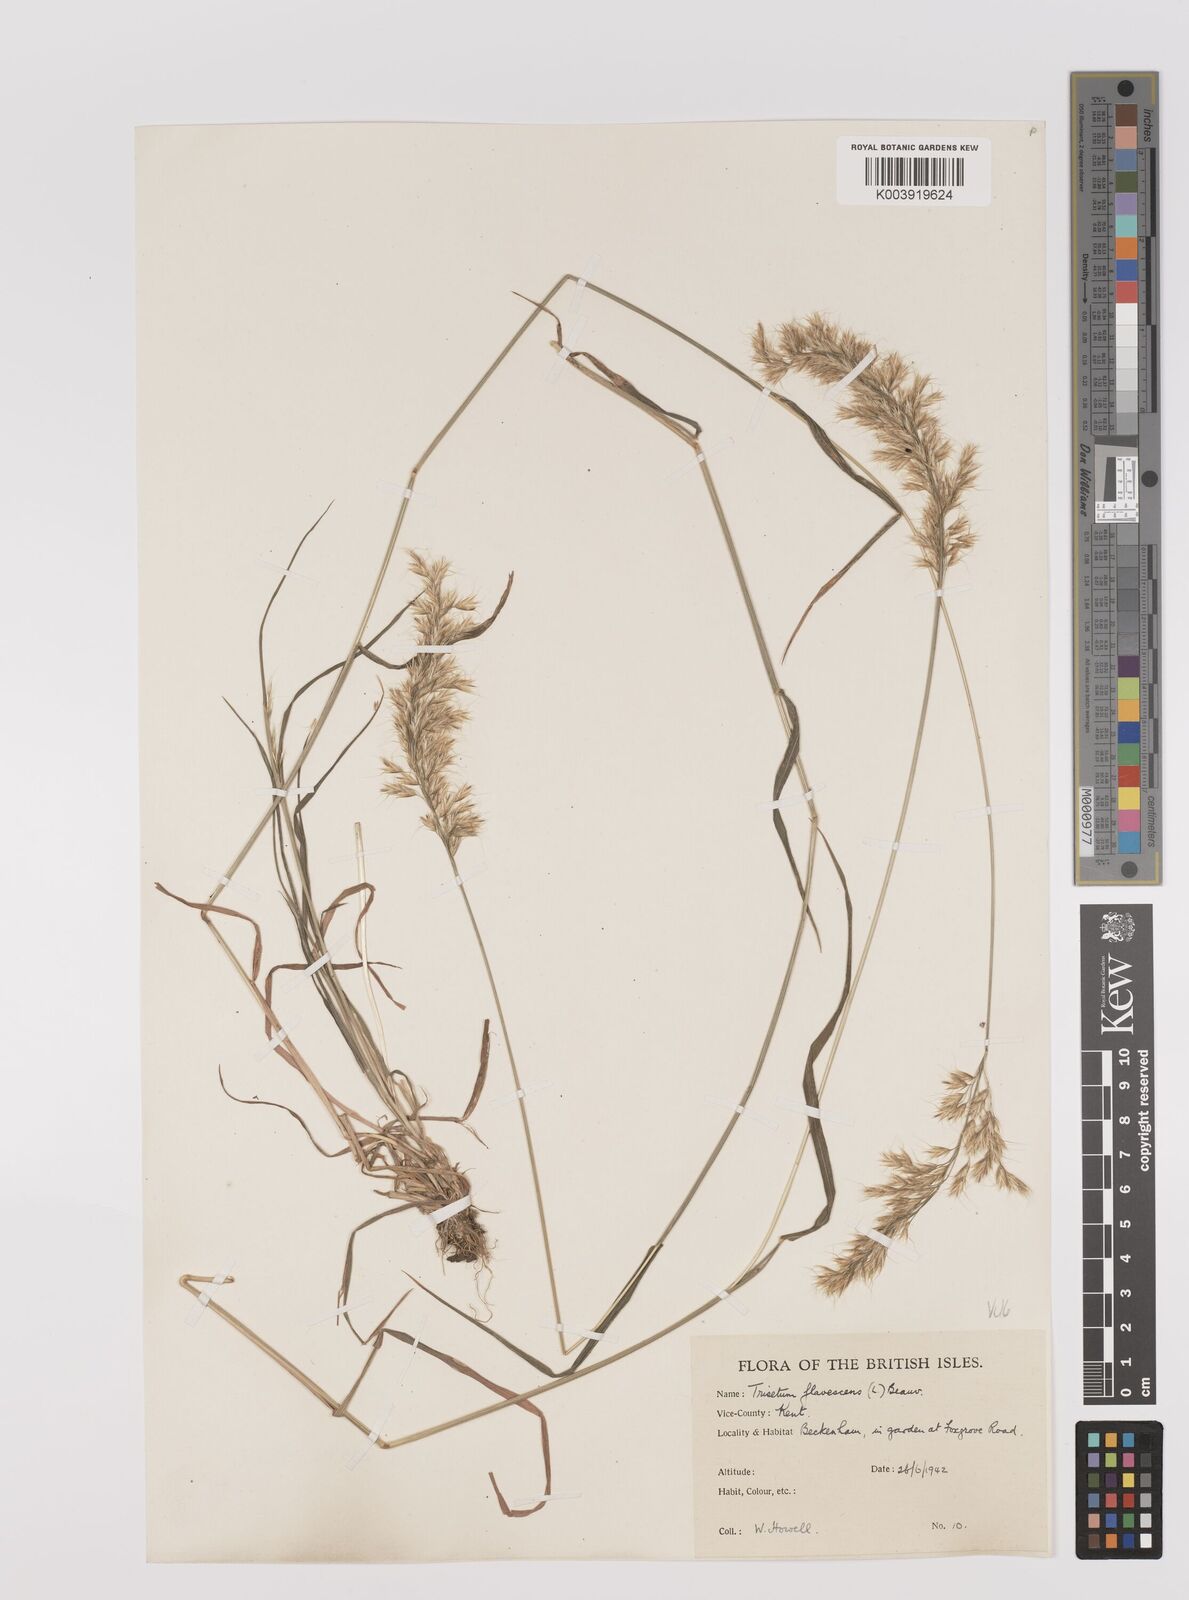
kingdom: Plantae
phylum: Tracheophyta
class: Liliopsida
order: Poales
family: Poaceae
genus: Trisetum
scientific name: Trisetum flavescens
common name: Yellow oat-grass
